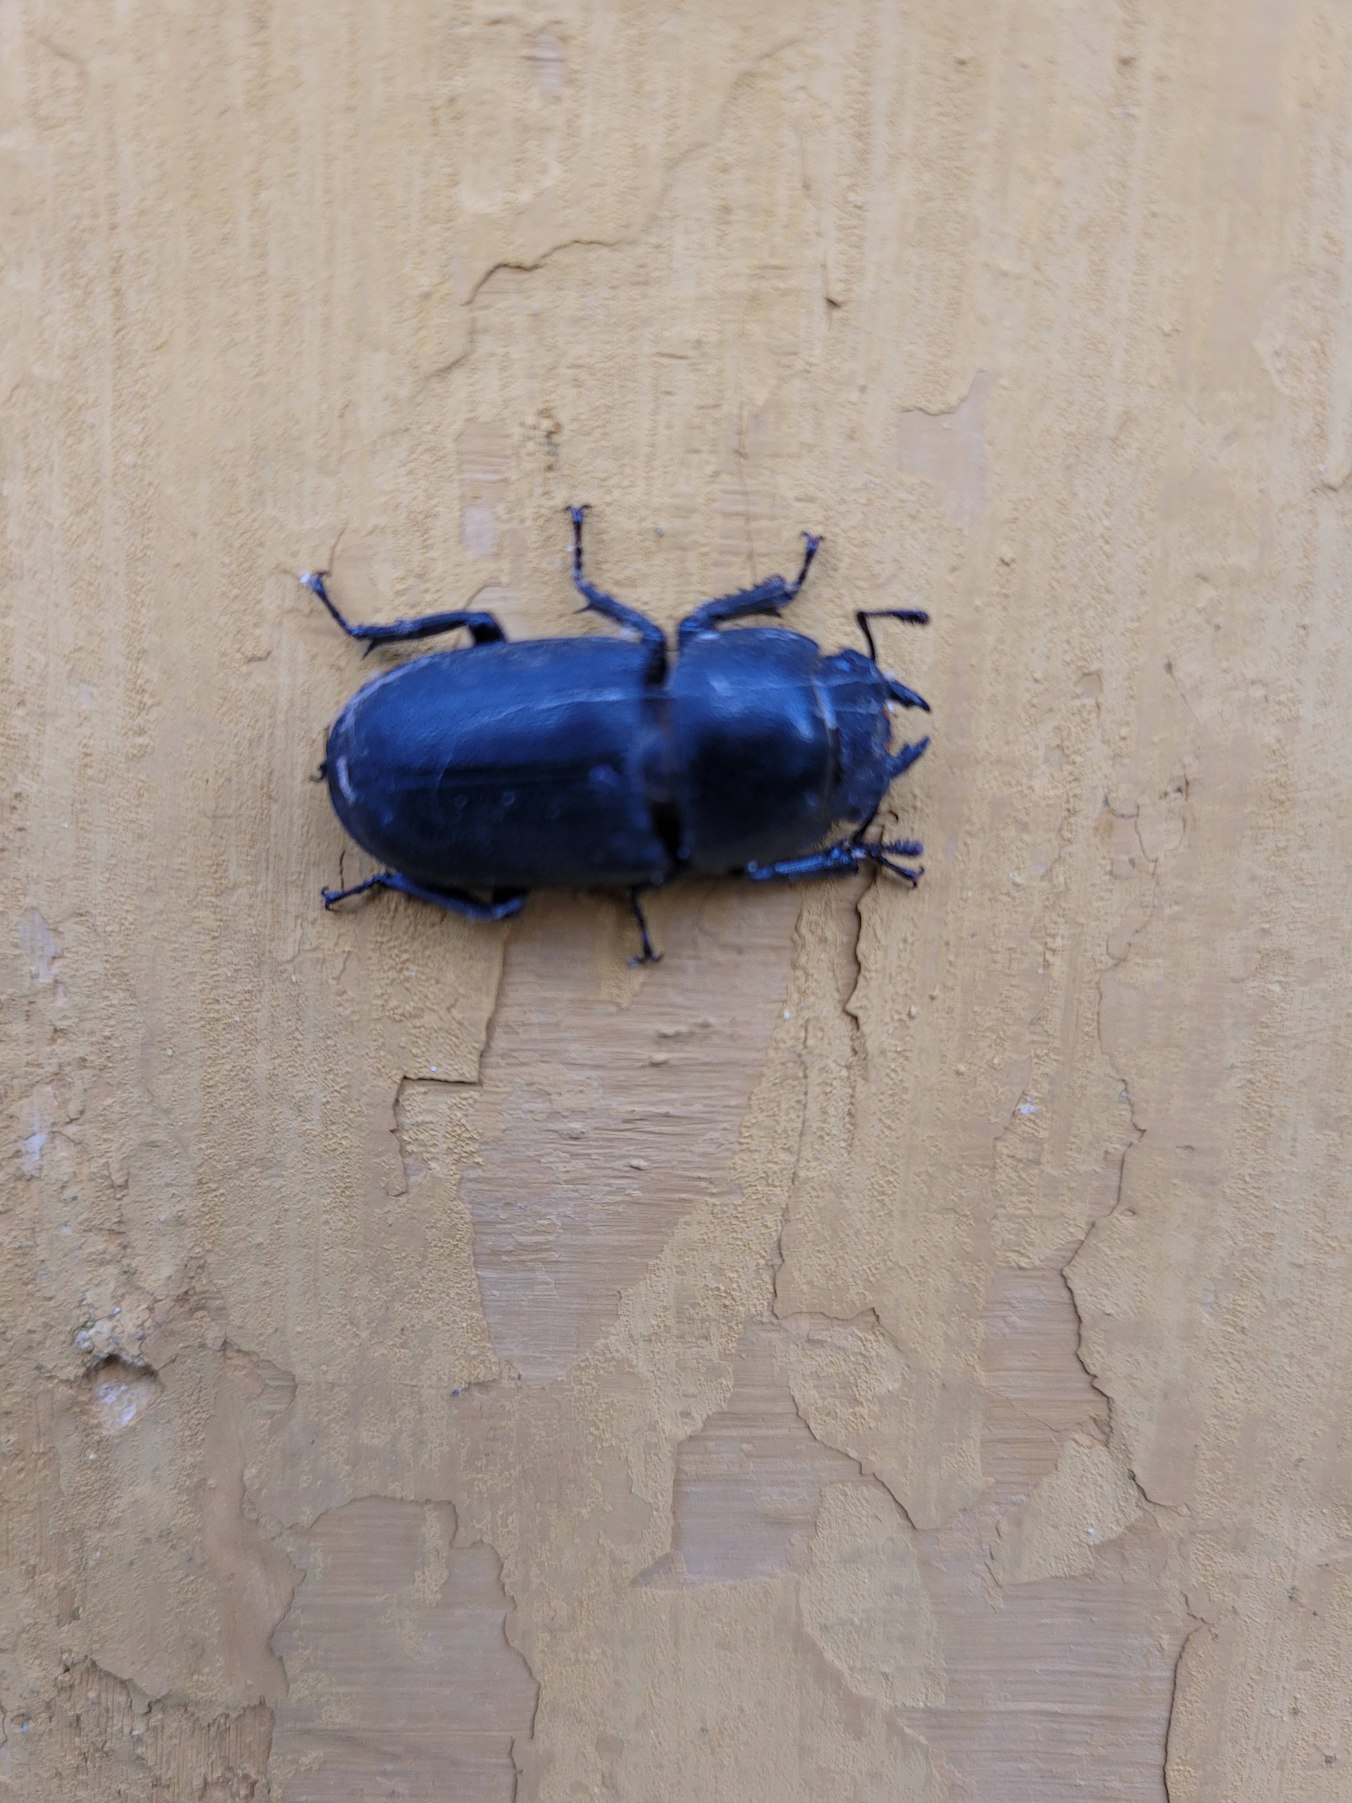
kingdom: Animalia
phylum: Arthropoda
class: Insecta
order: Coleoptera
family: Lucanidae
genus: Dorcus
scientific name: Dorcus parallelipipedus
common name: Bøghjort
